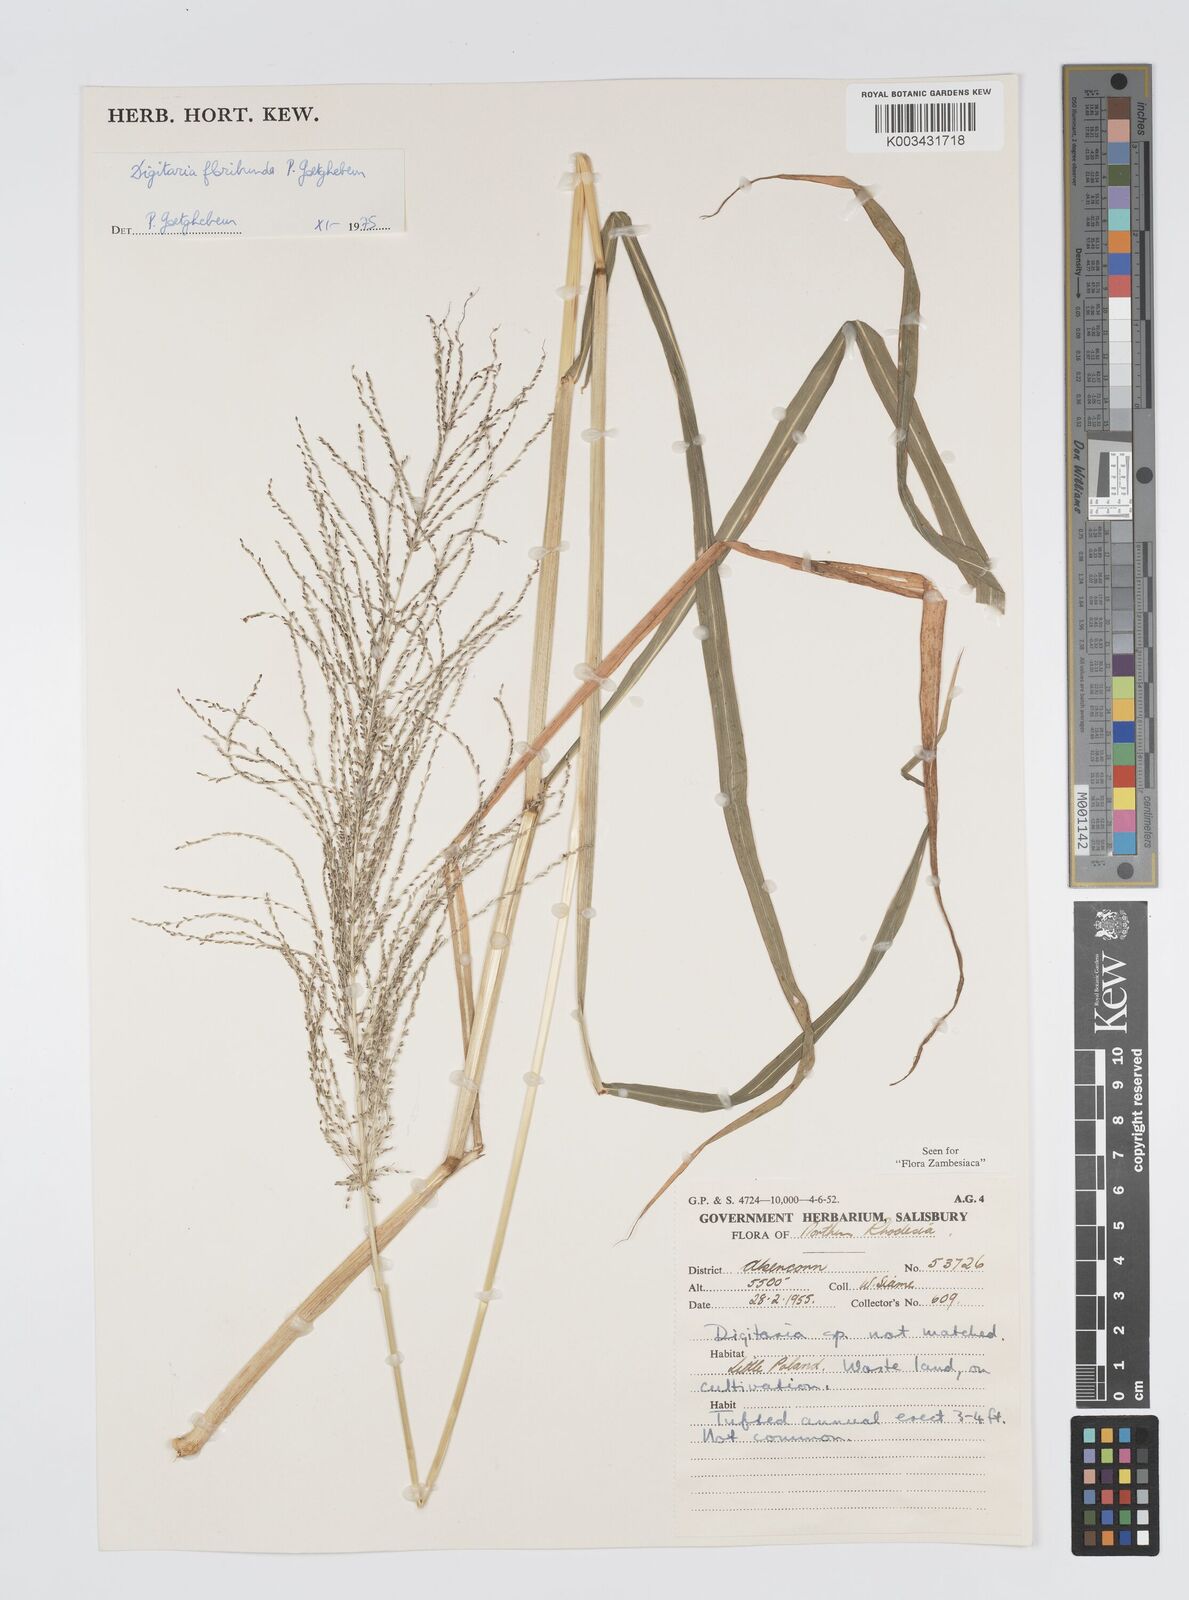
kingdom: Plantae
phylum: Tracheophyta
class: Liliopsida
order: Poales
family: Poaceae
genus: Digitaria
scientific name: Digitaria perrottetii
